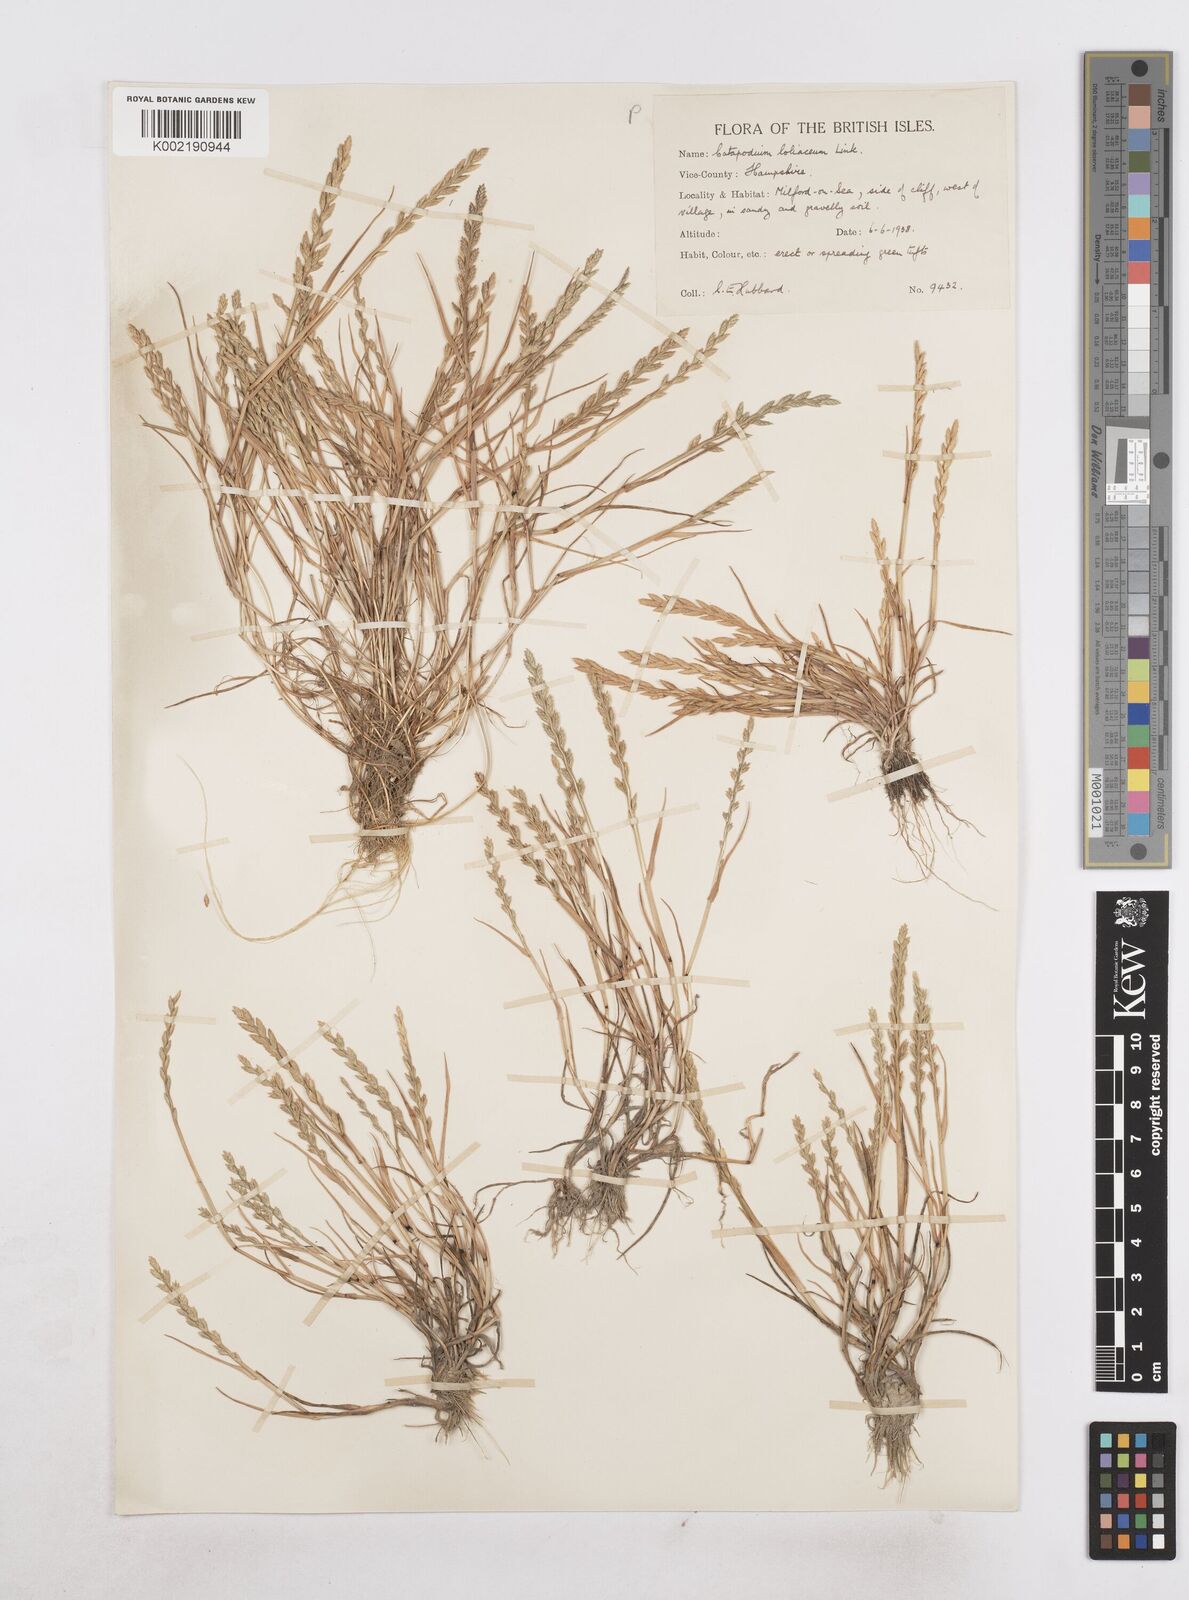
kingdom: Plantae
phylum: Tracheophyta
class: Liliopsida
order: Poales
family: Poaceae
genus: Catapodium
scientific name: Catapodium marinum
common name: Sea fern-grass
